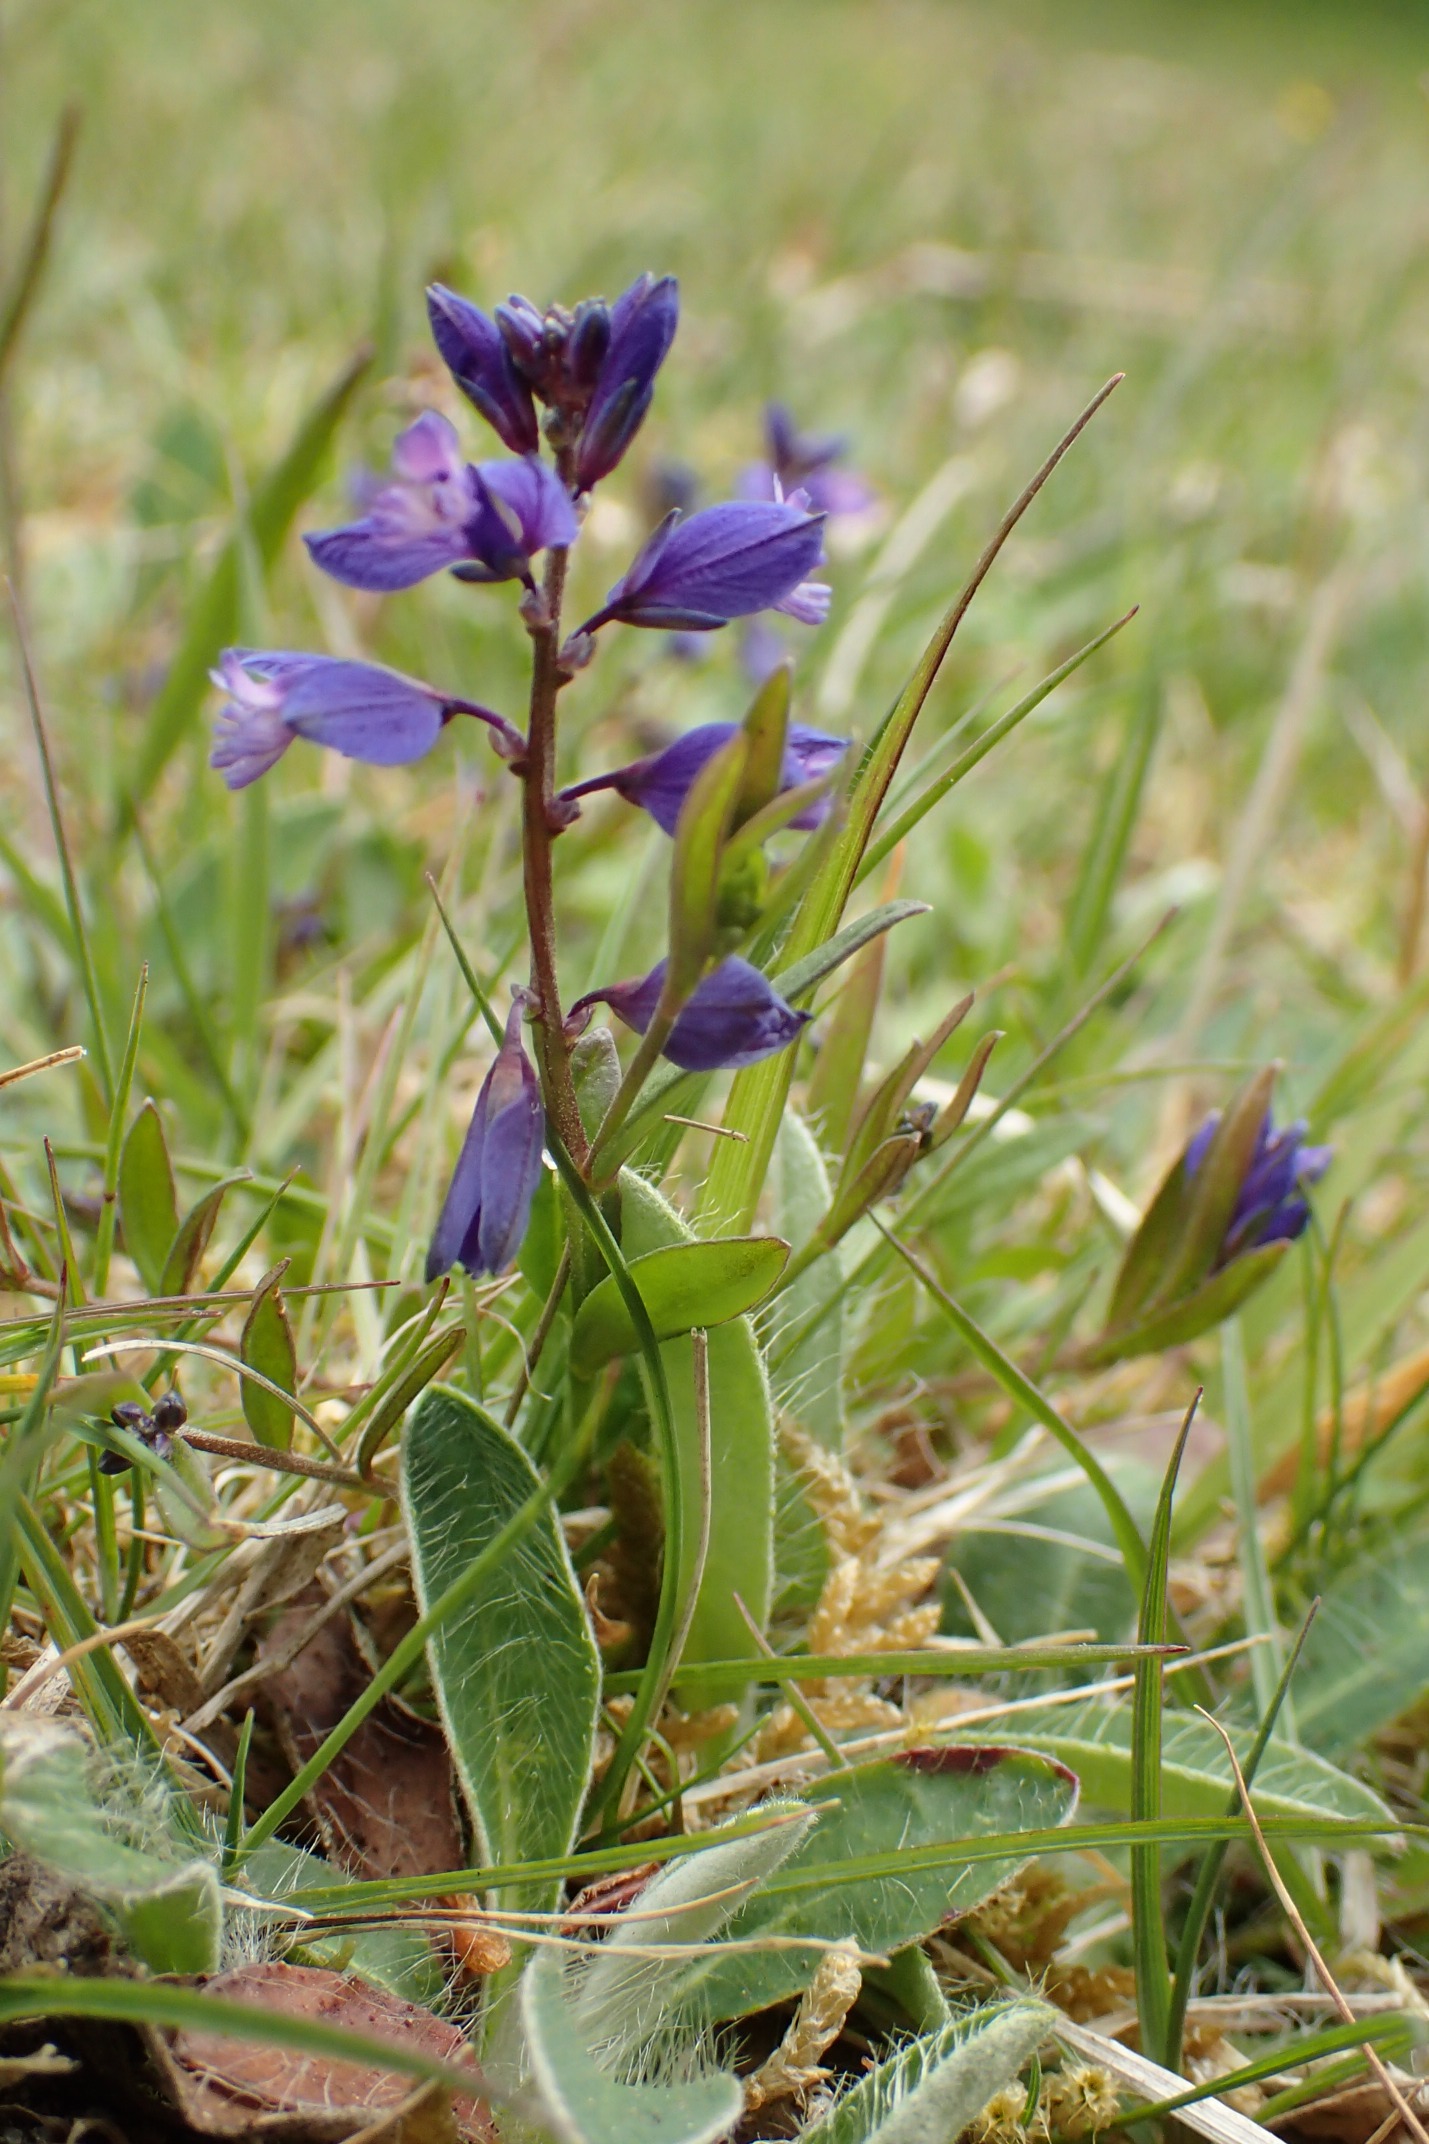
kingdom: Plantae
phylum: Tracheophyta
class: Magnoliopsida
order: Fabales
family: Polygalaceae
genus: Polygala
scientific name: Polygala serpyllifolia
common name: Spæd mælkeurt
